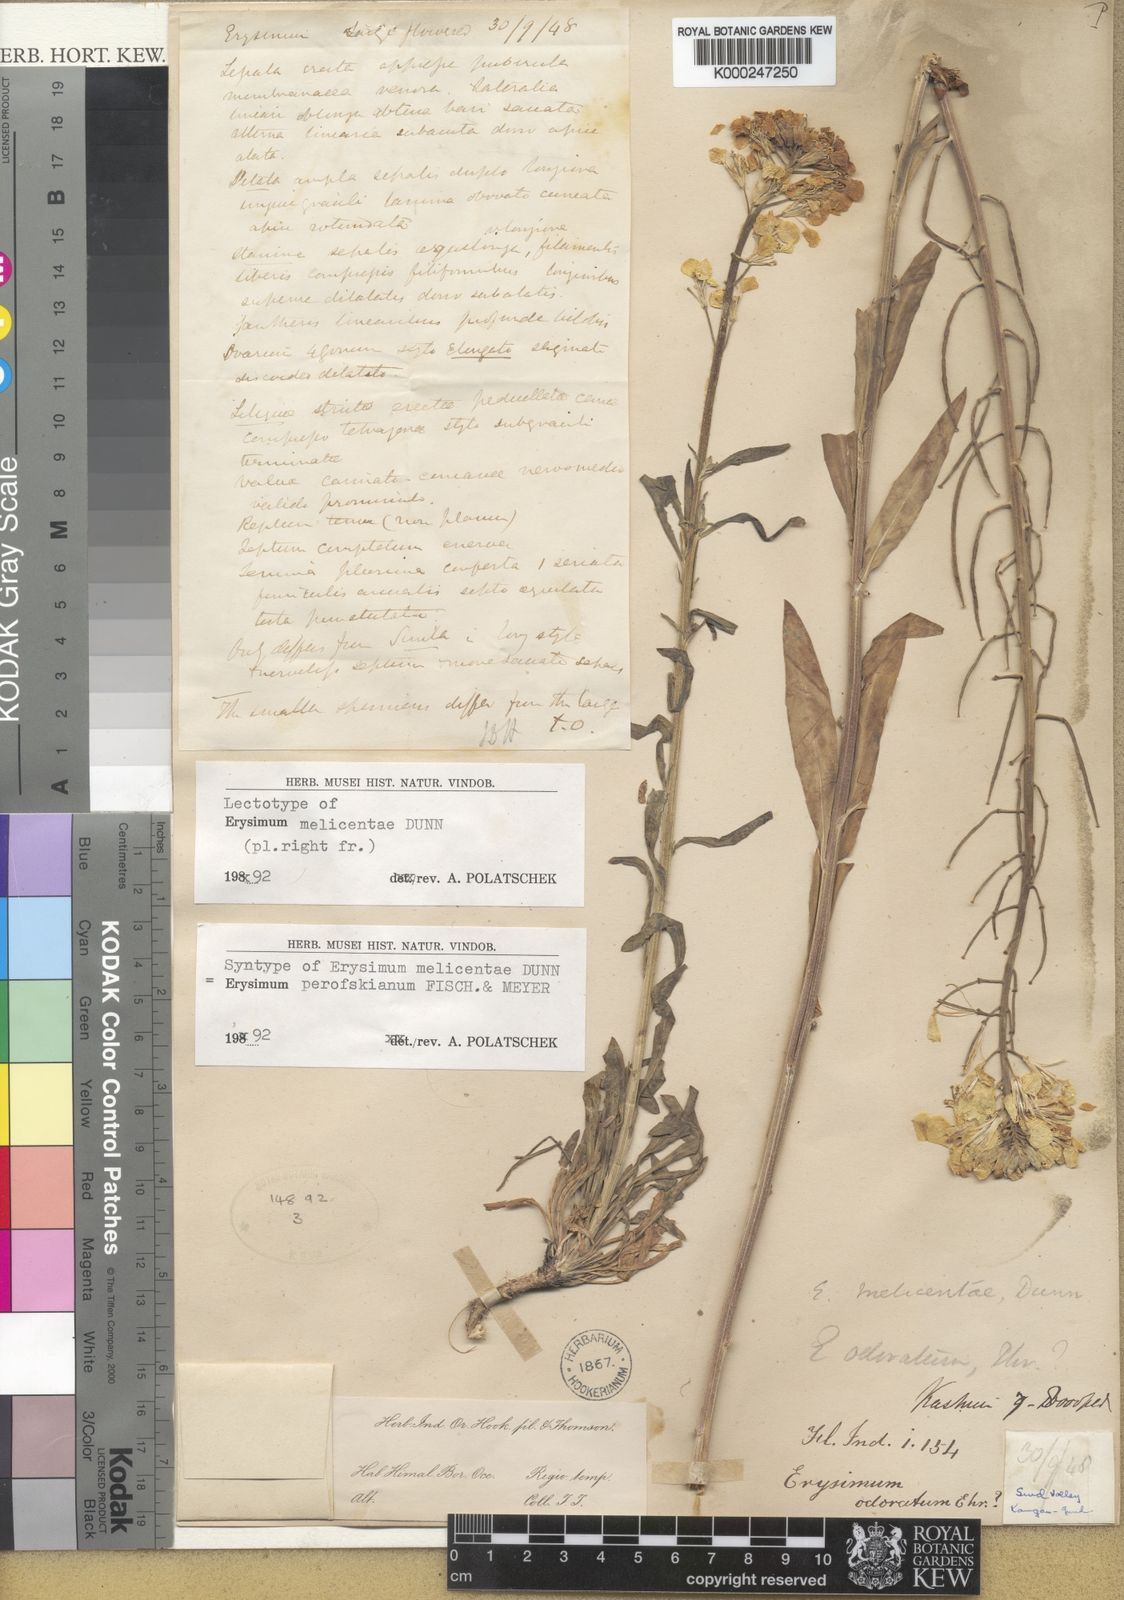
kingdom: Plantae
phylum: Tracheophyta
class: Magnoliopsida
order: Brassicales
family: Brassicaceae
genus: Erysimum
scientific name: Erysimum perofskianum
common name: Afghan erysimum
